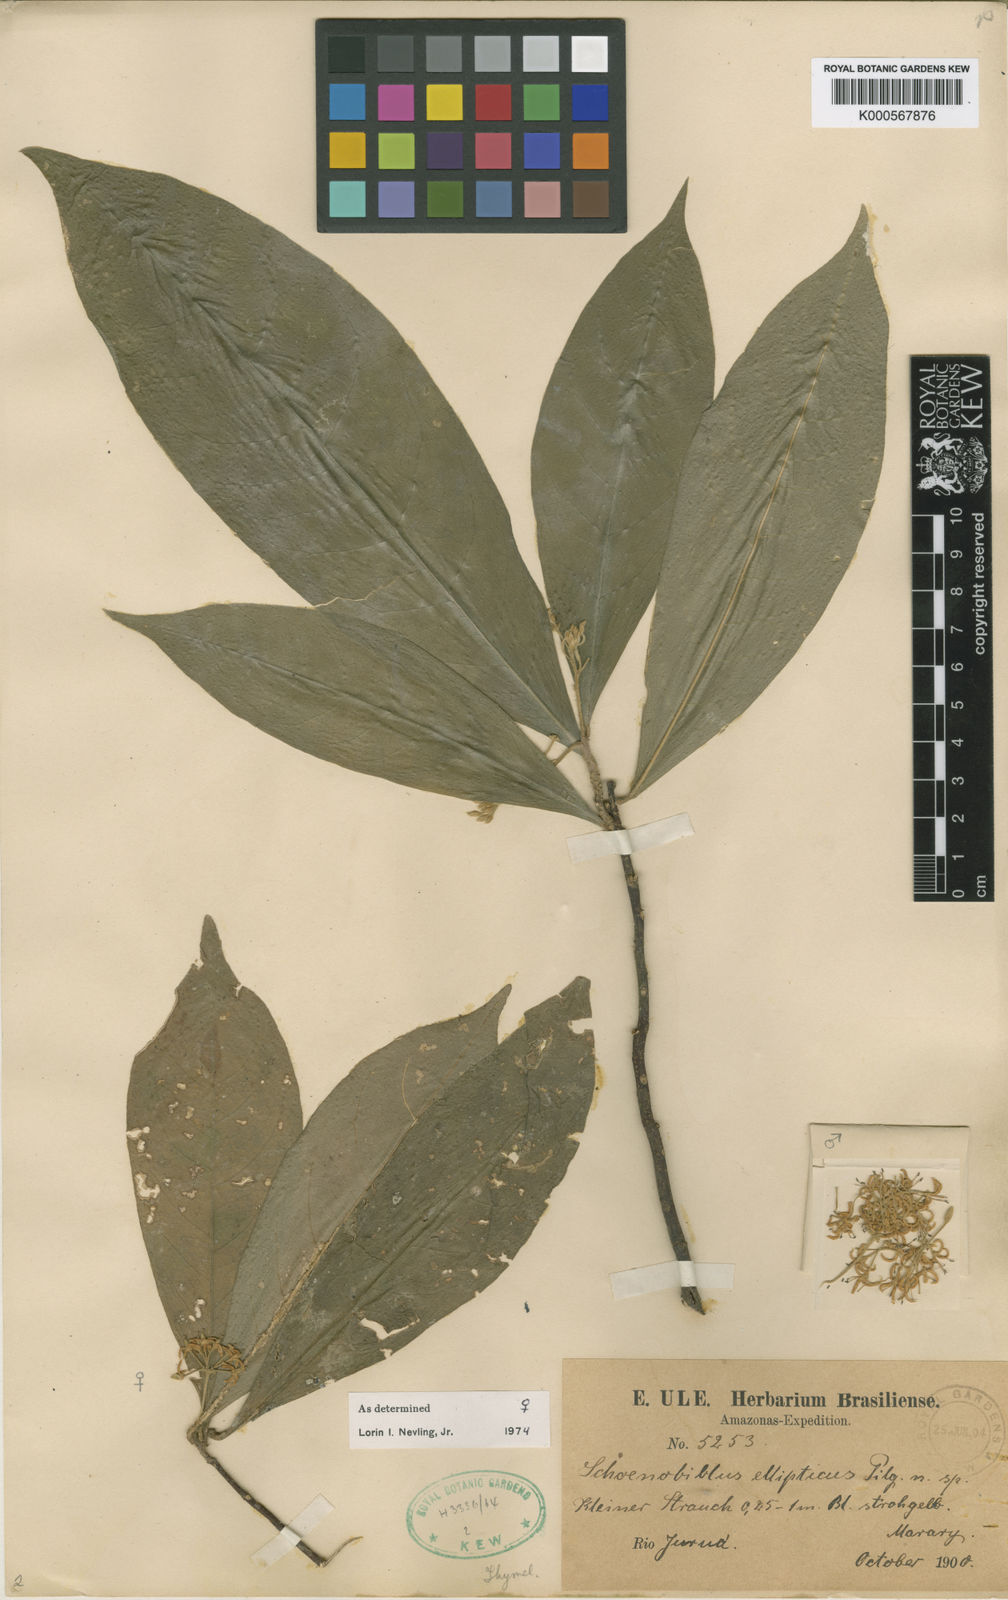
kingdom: Plantae
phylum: Tracheophyta
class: Magnoliopsida
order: Malvales
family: Thymelaeaceae
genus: Schoenobiblus
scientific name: Schoenobiblus elliptica
